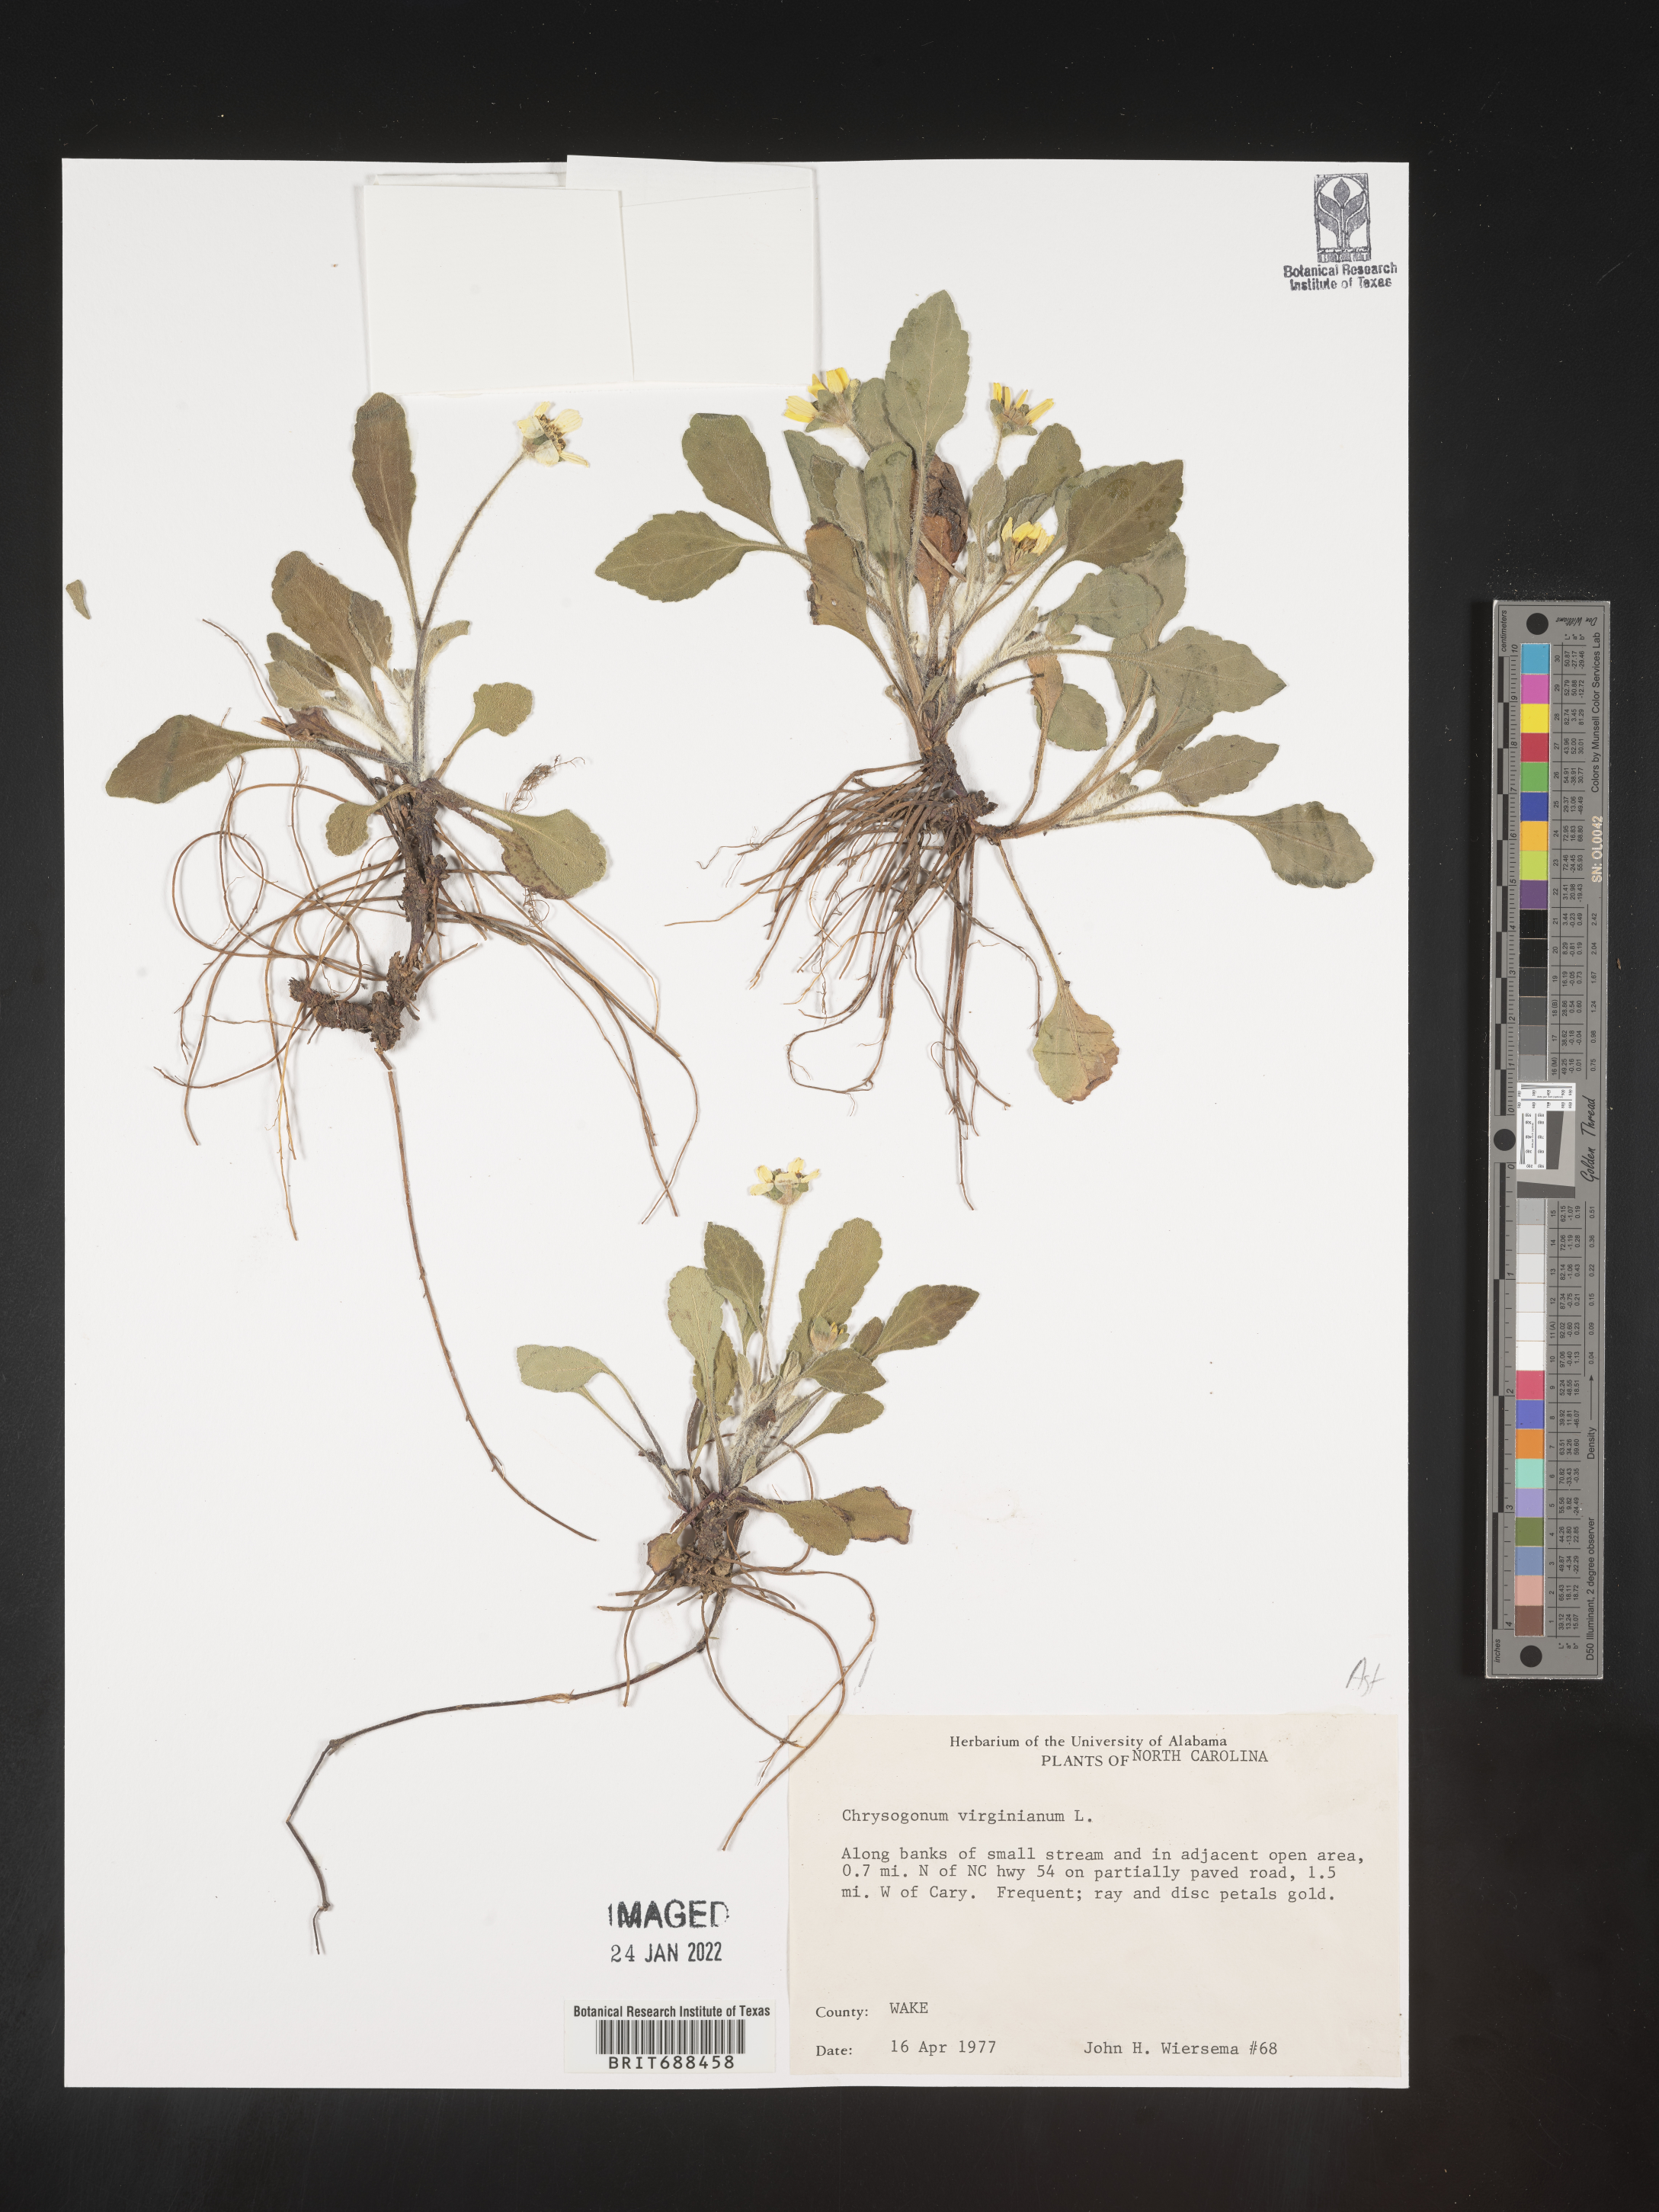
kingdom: Plantae
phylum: Tracheophyta
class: Magnoliopsida
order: Asterales
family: Asteraceae
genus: Chrysogonum
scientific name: Chrysogonum virginianum
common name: Golden-knee
